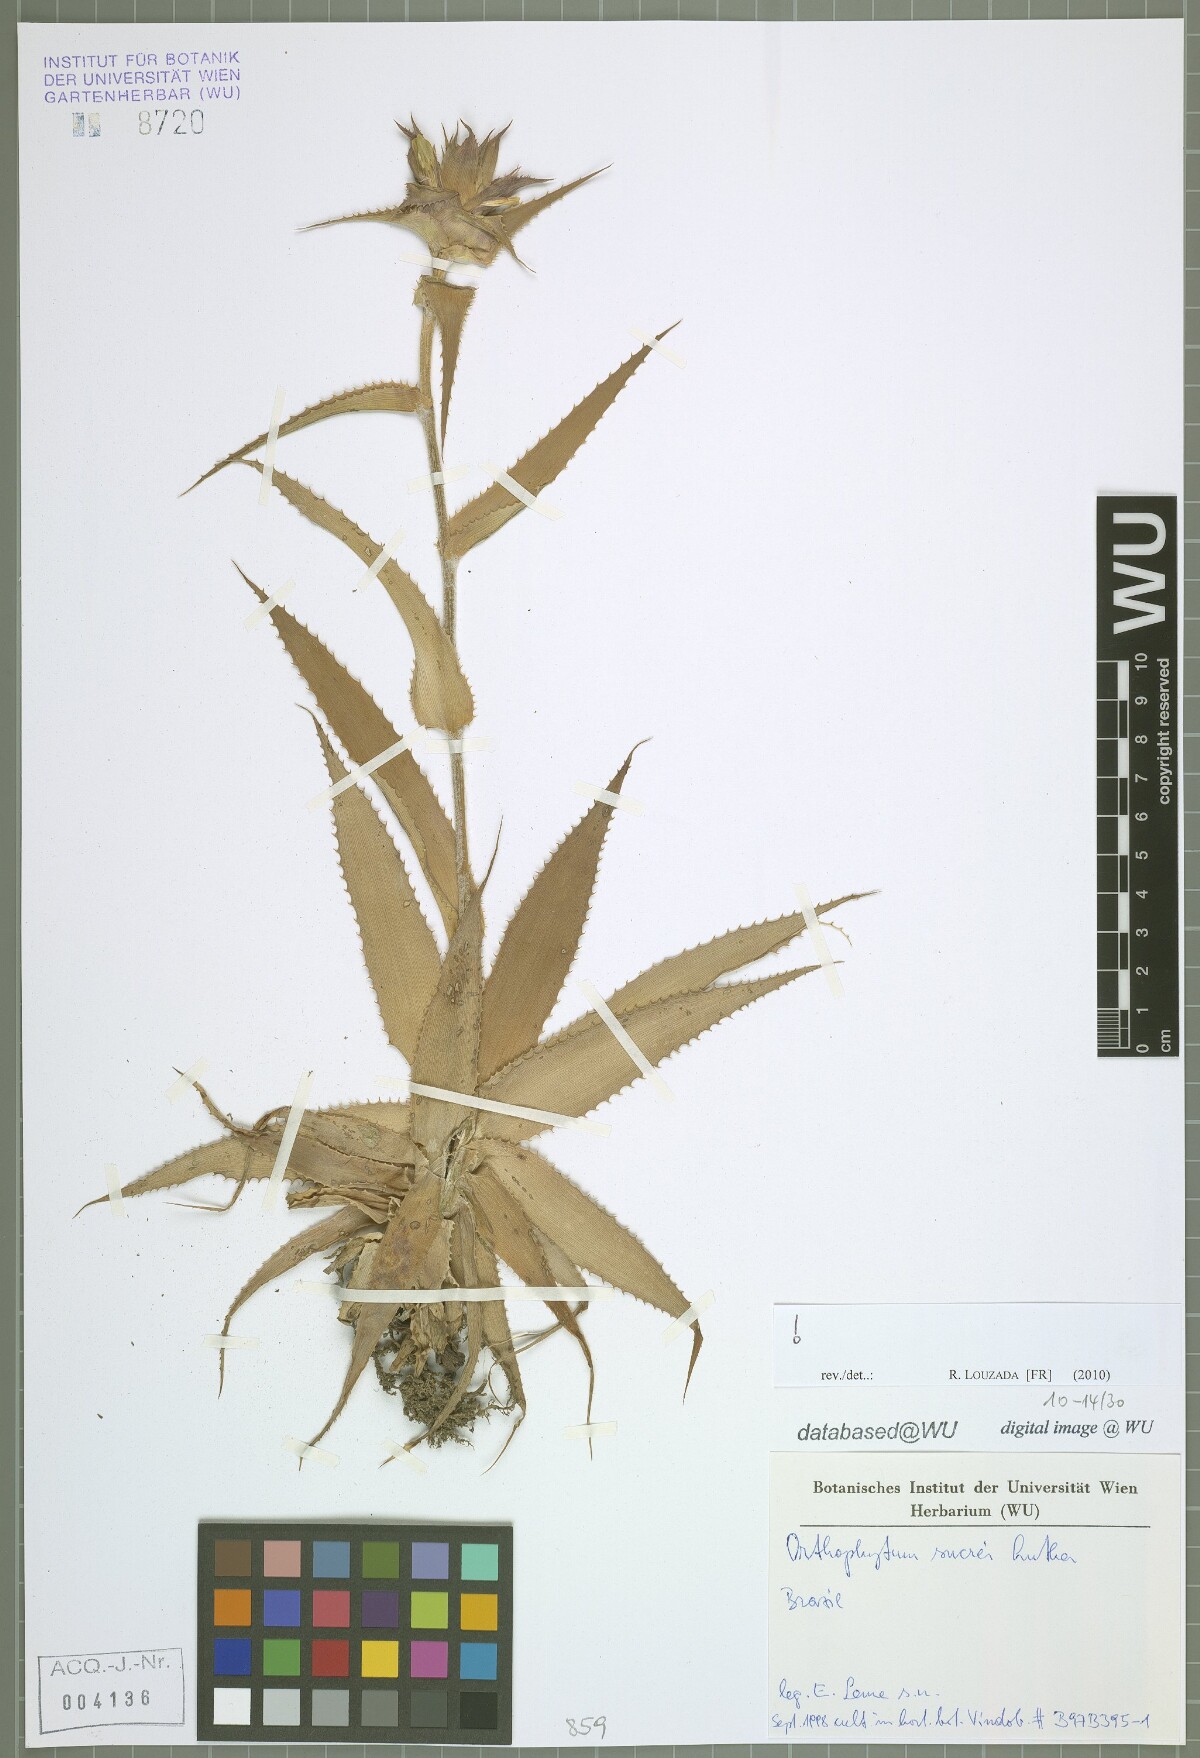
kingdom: Plantae
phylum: Tracheophyta
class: Liliopsida
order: Poales
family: Bromeliaceae
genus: Orthophytum
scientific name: Orthophytum sucrei
